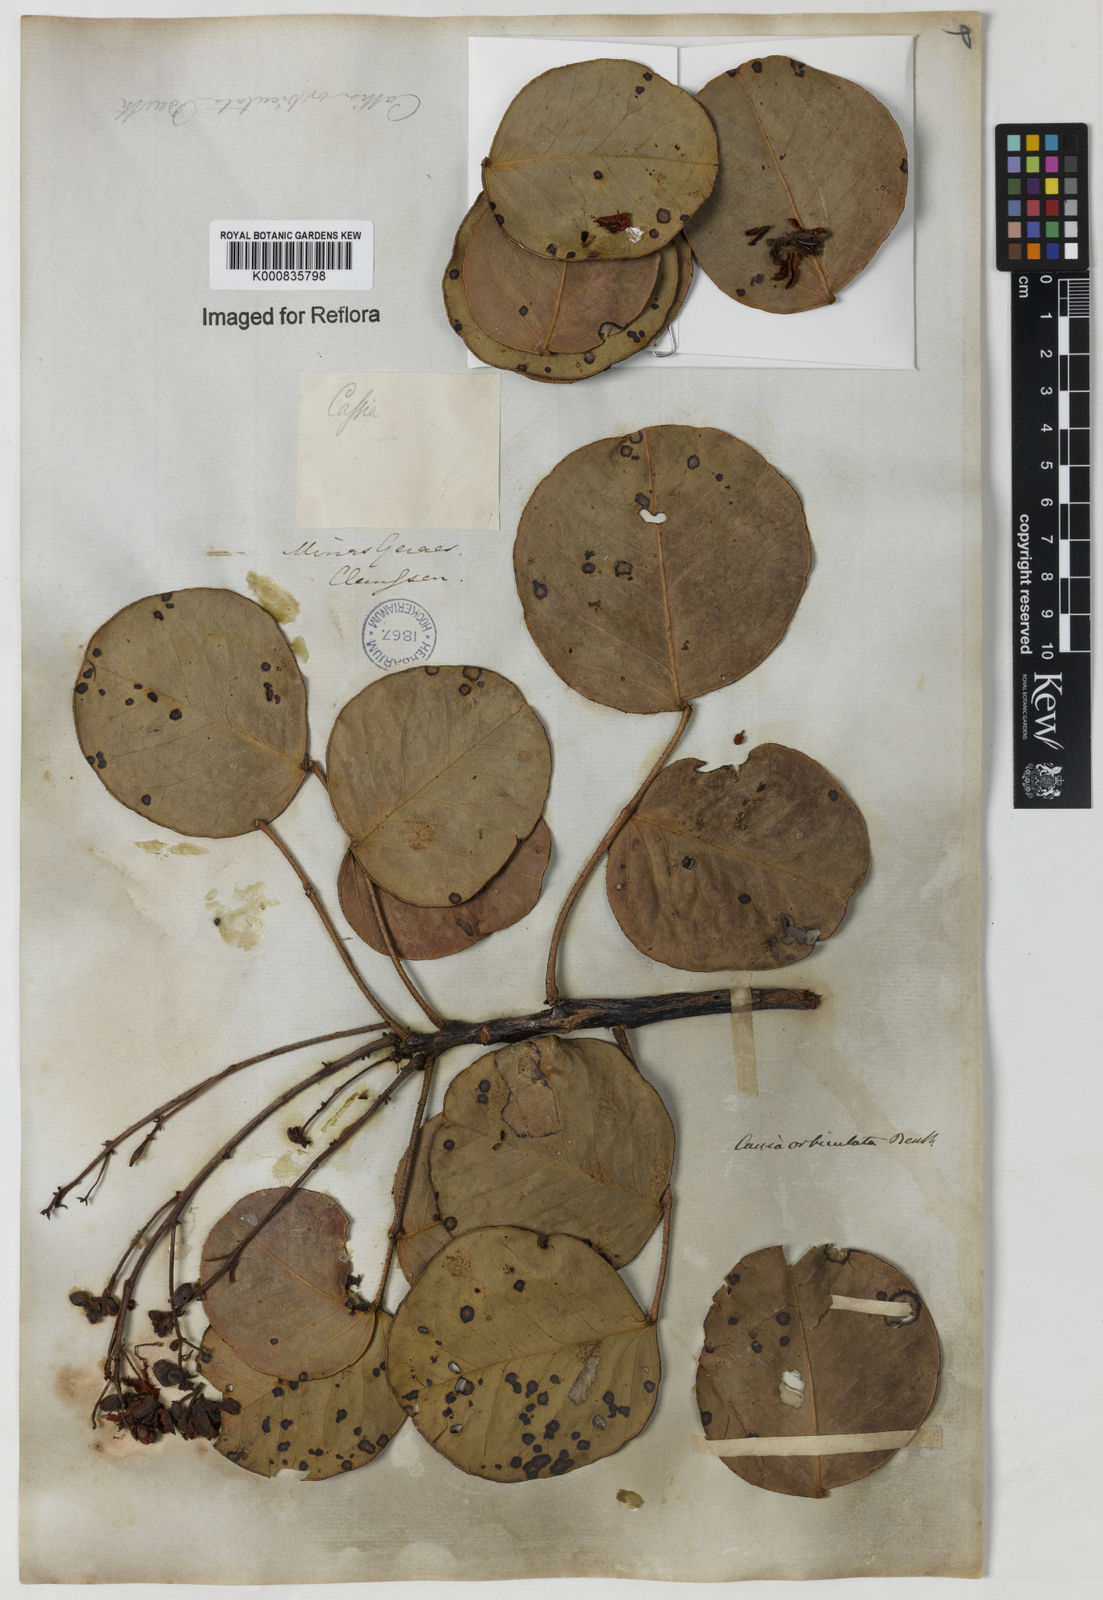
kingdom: Plantae
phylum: Tracheophyta
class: Magnoliopsida
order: Fabales
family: Fabaceae
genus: Chamaecrista
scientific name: Chamaecrista orbiculata
